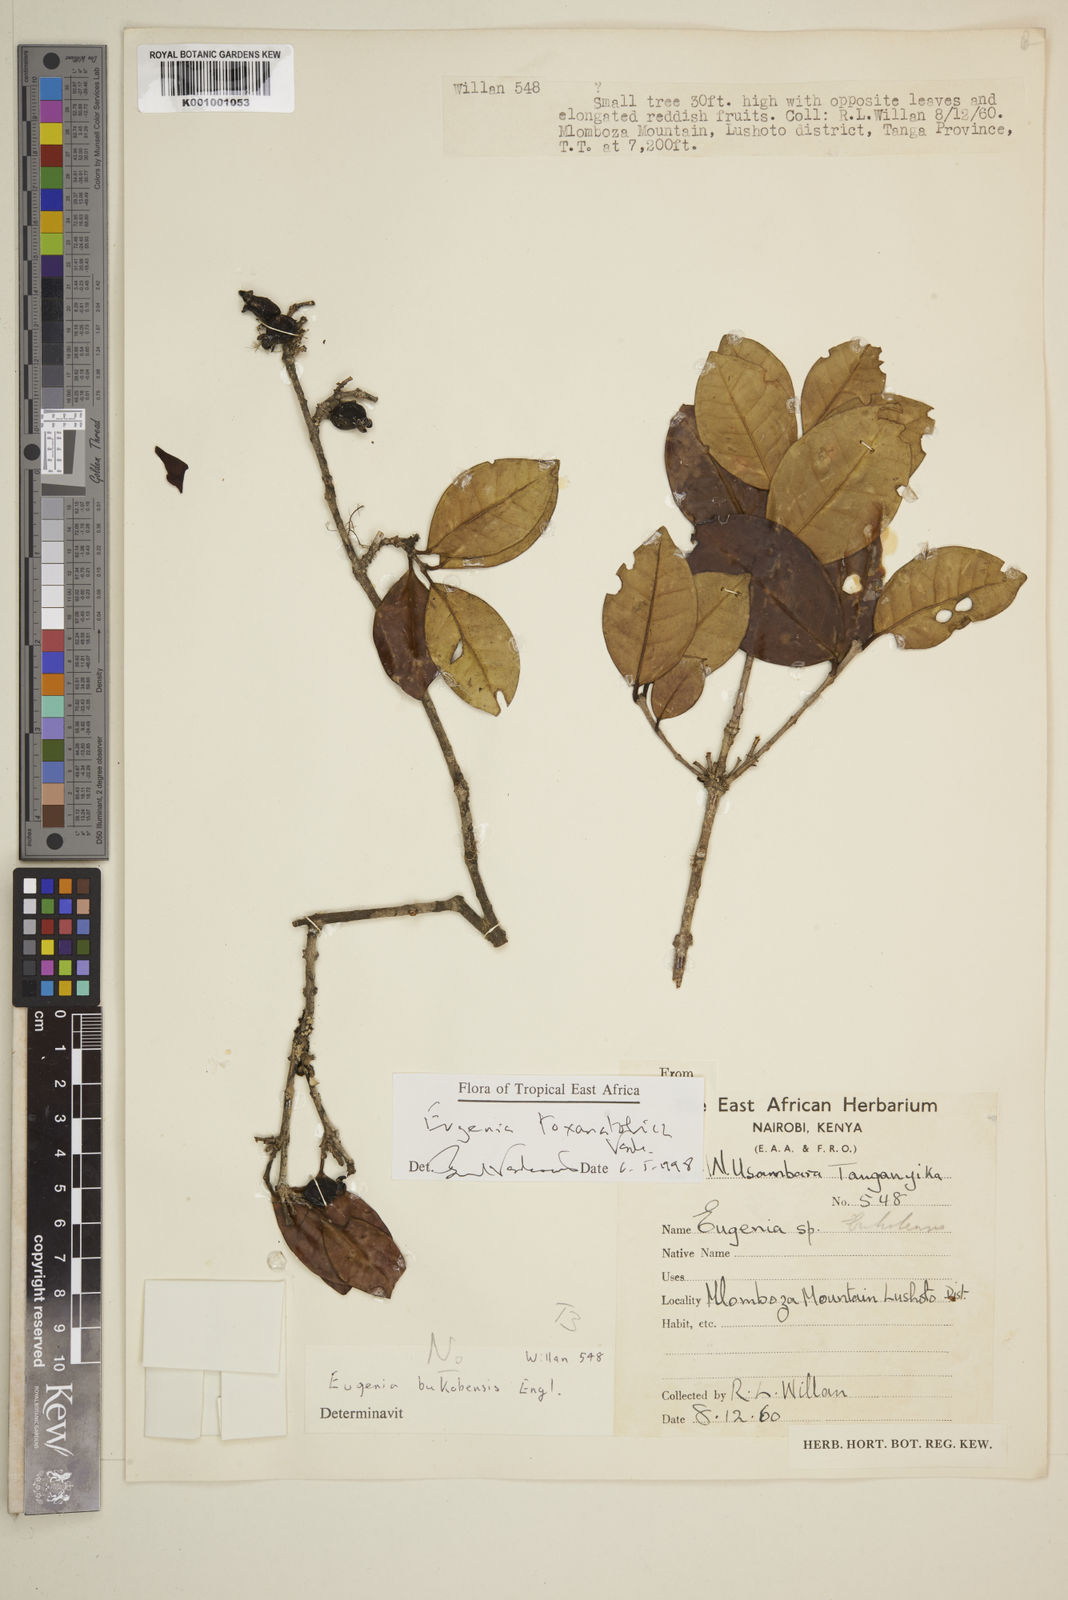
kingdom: Plantae
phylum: Tracheophyta
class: Magnoliopsida
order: Myrtales
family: Myrtaceae
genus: Eugenia
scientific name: Eugenia toxanatolica
